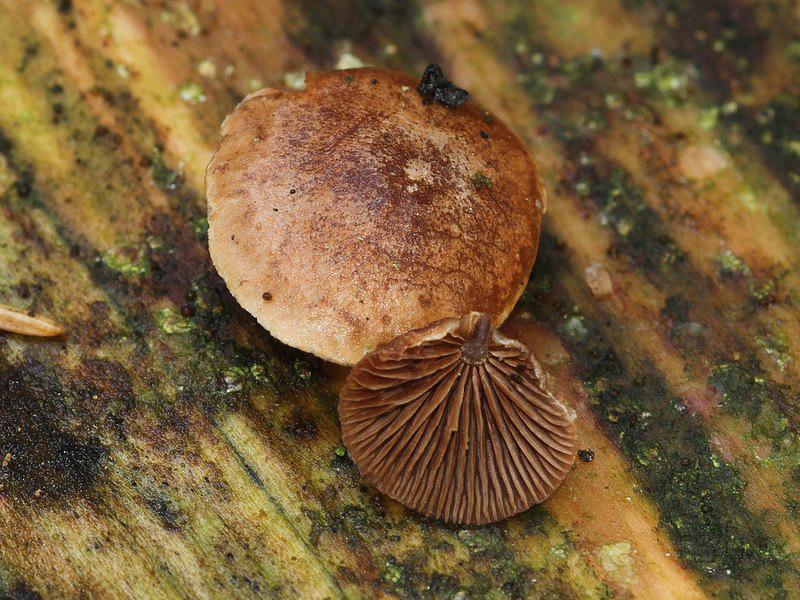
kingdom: Fungi
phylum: Basidiomycota
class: Agaricomycetes
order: Agaricales
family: Strophariaceae
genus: Deconica
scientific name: Deconica horizontalis
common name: ved-stråhat
